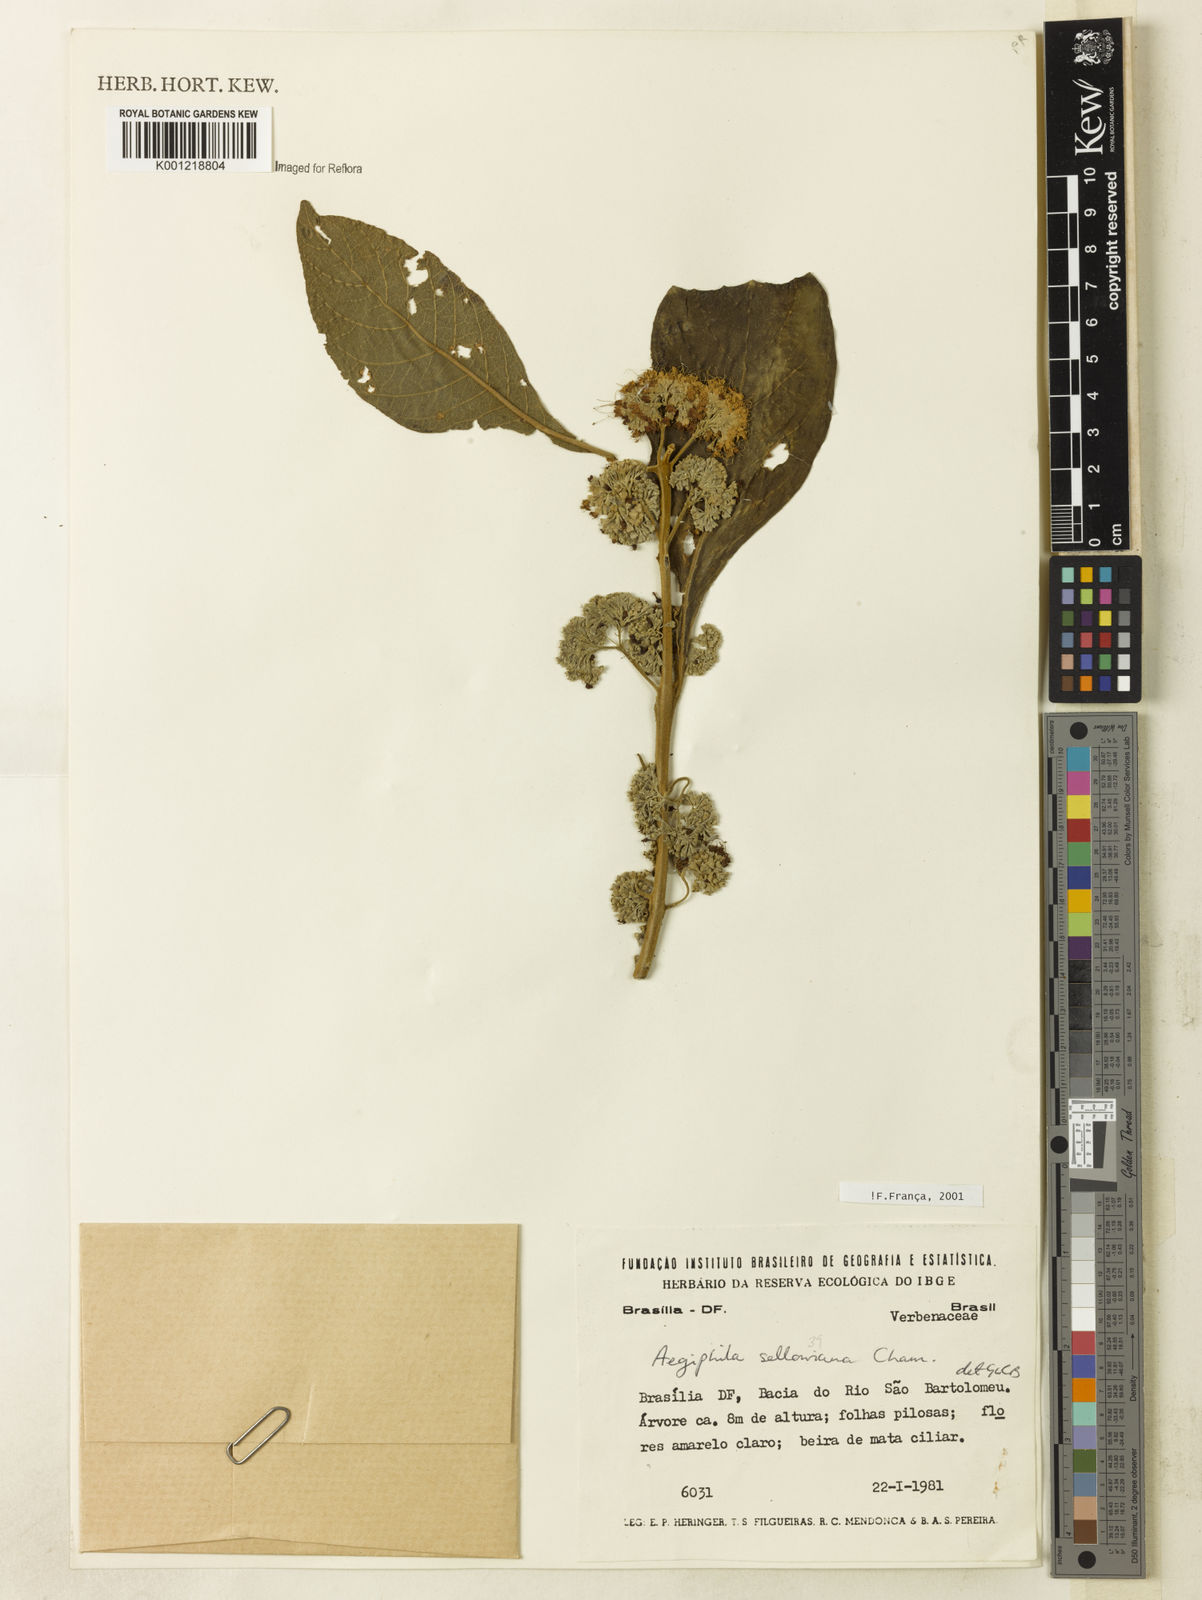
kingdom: Plantae
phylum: Tracheophyta
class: Magnoliopsida
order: Lamiales
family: Lamiaceae
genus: Aegiphila
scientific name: Aegiphila verticillata
